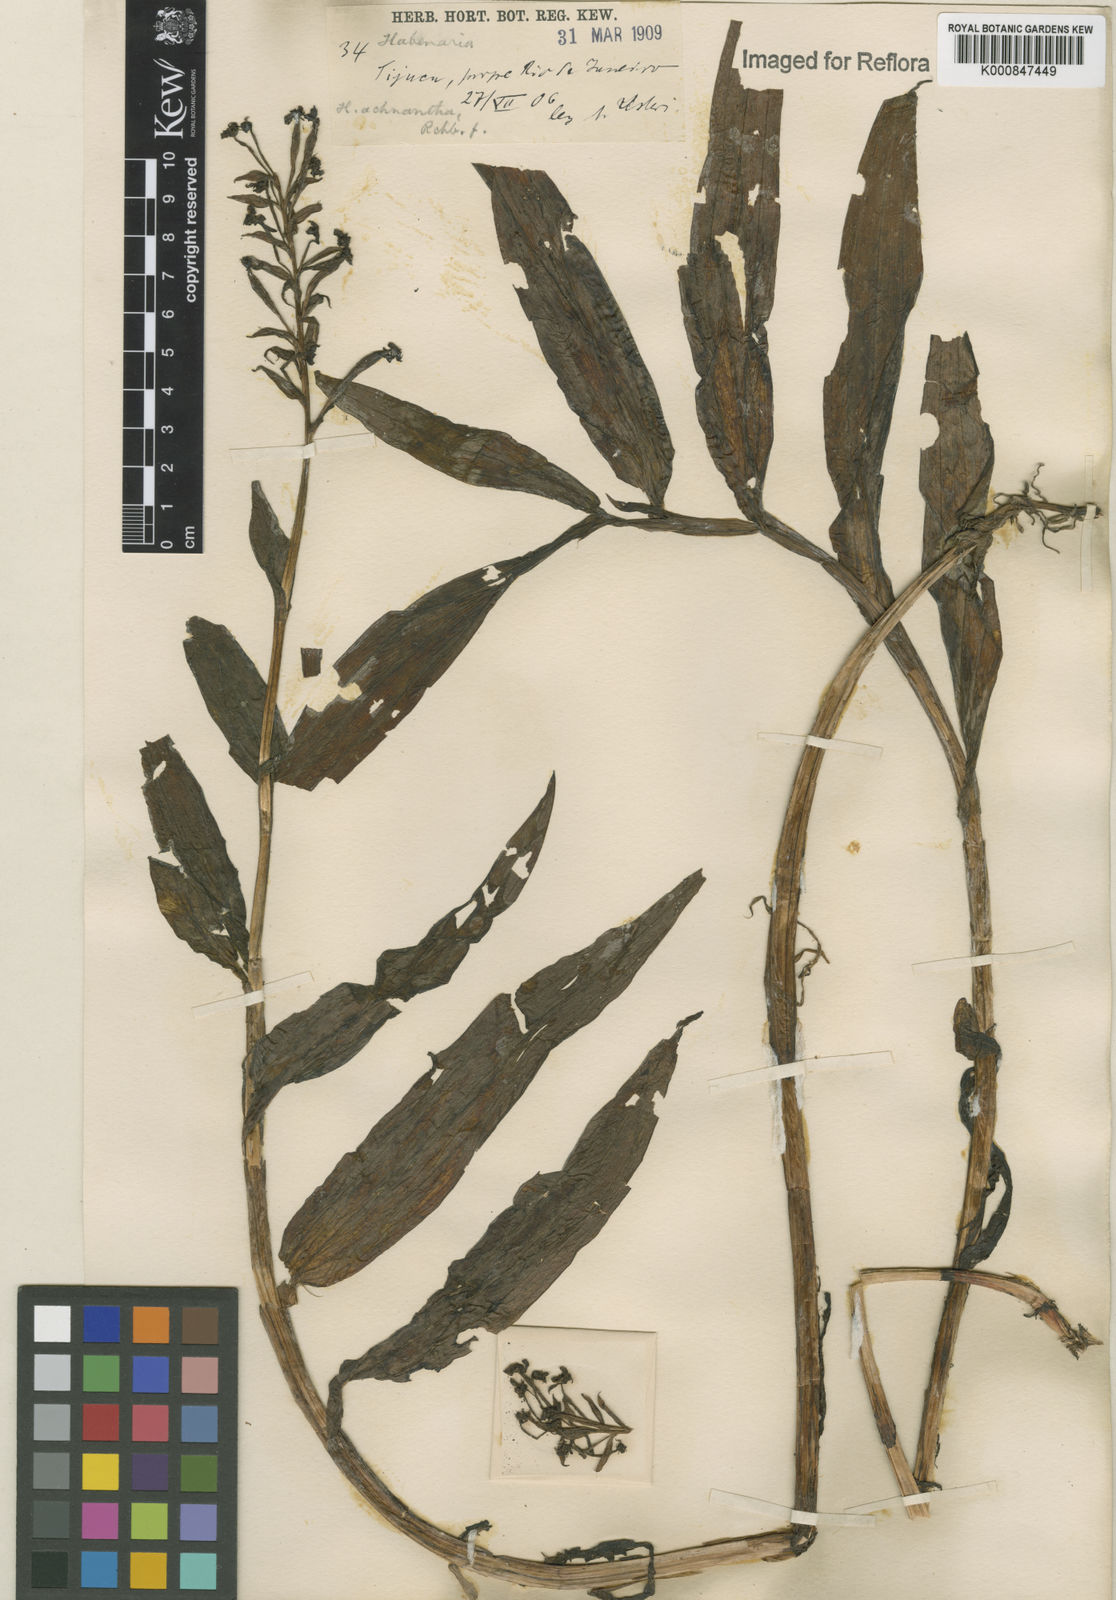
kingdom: Plantae
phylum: Tracheophyta
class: Liliopsida
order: Asparagales
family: Orchidaceae
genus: Habenaria
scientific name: Habenaria repens
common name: Water orchid
